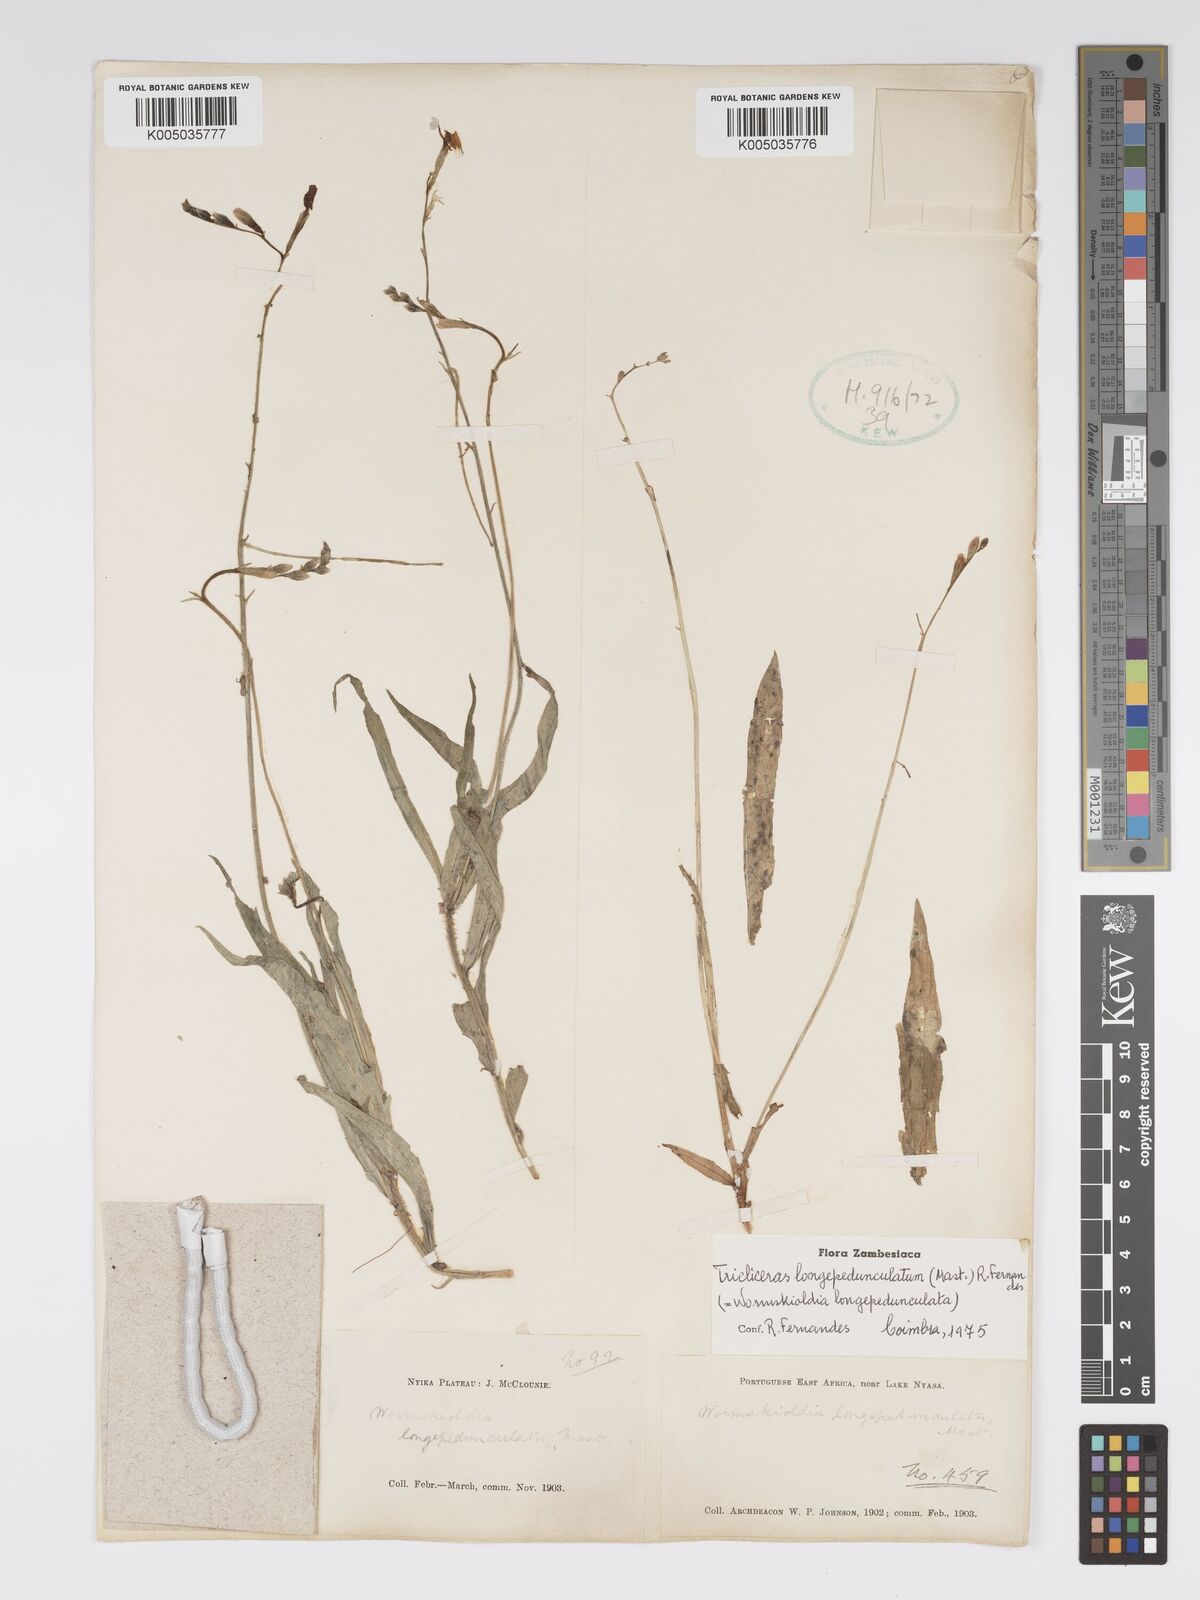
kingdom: Plantae
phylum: Tracheophyta
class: Magnoliopsida
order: Malpighiales
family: Turneraceae
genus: Tricliceras
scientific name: Tricliceras longepedunculatum
